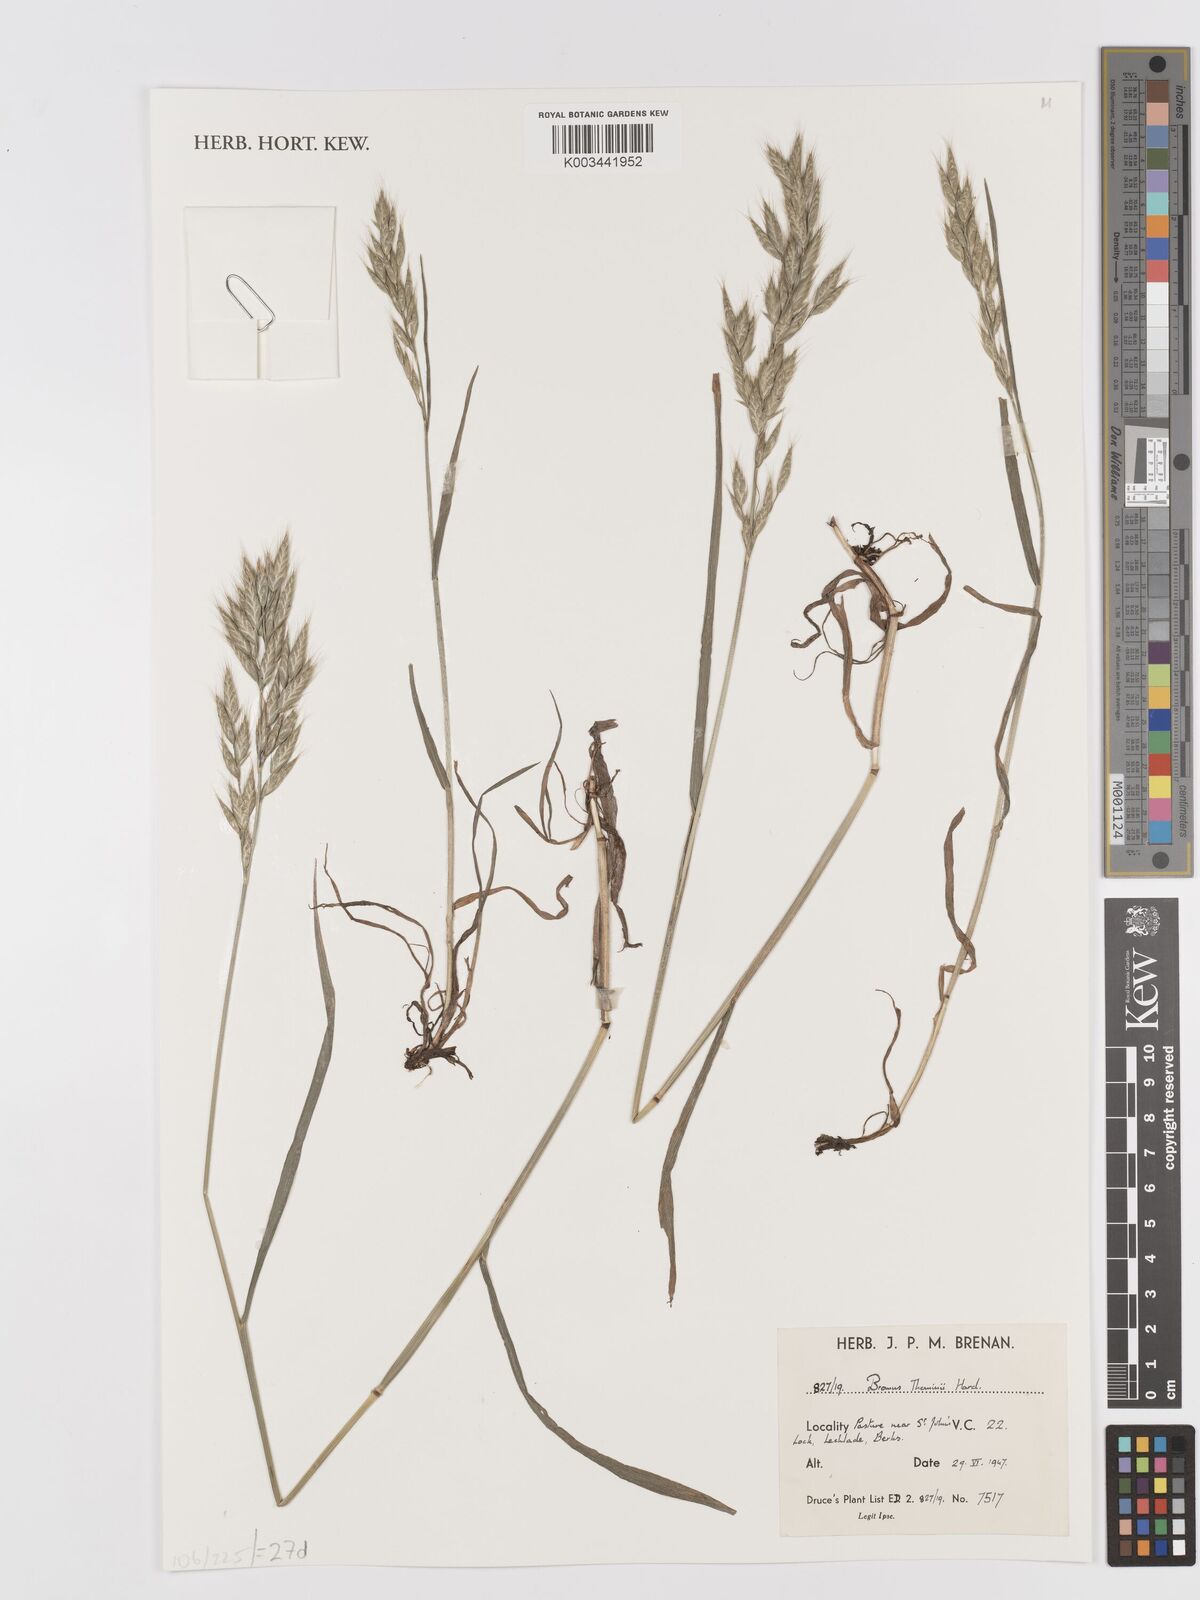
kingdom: Plantae
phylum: Tracheophyta
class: Liliopsida
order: Poales
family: Poaceae
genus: Bromus
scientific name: Bromus hordeaceus
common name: Soft brome
